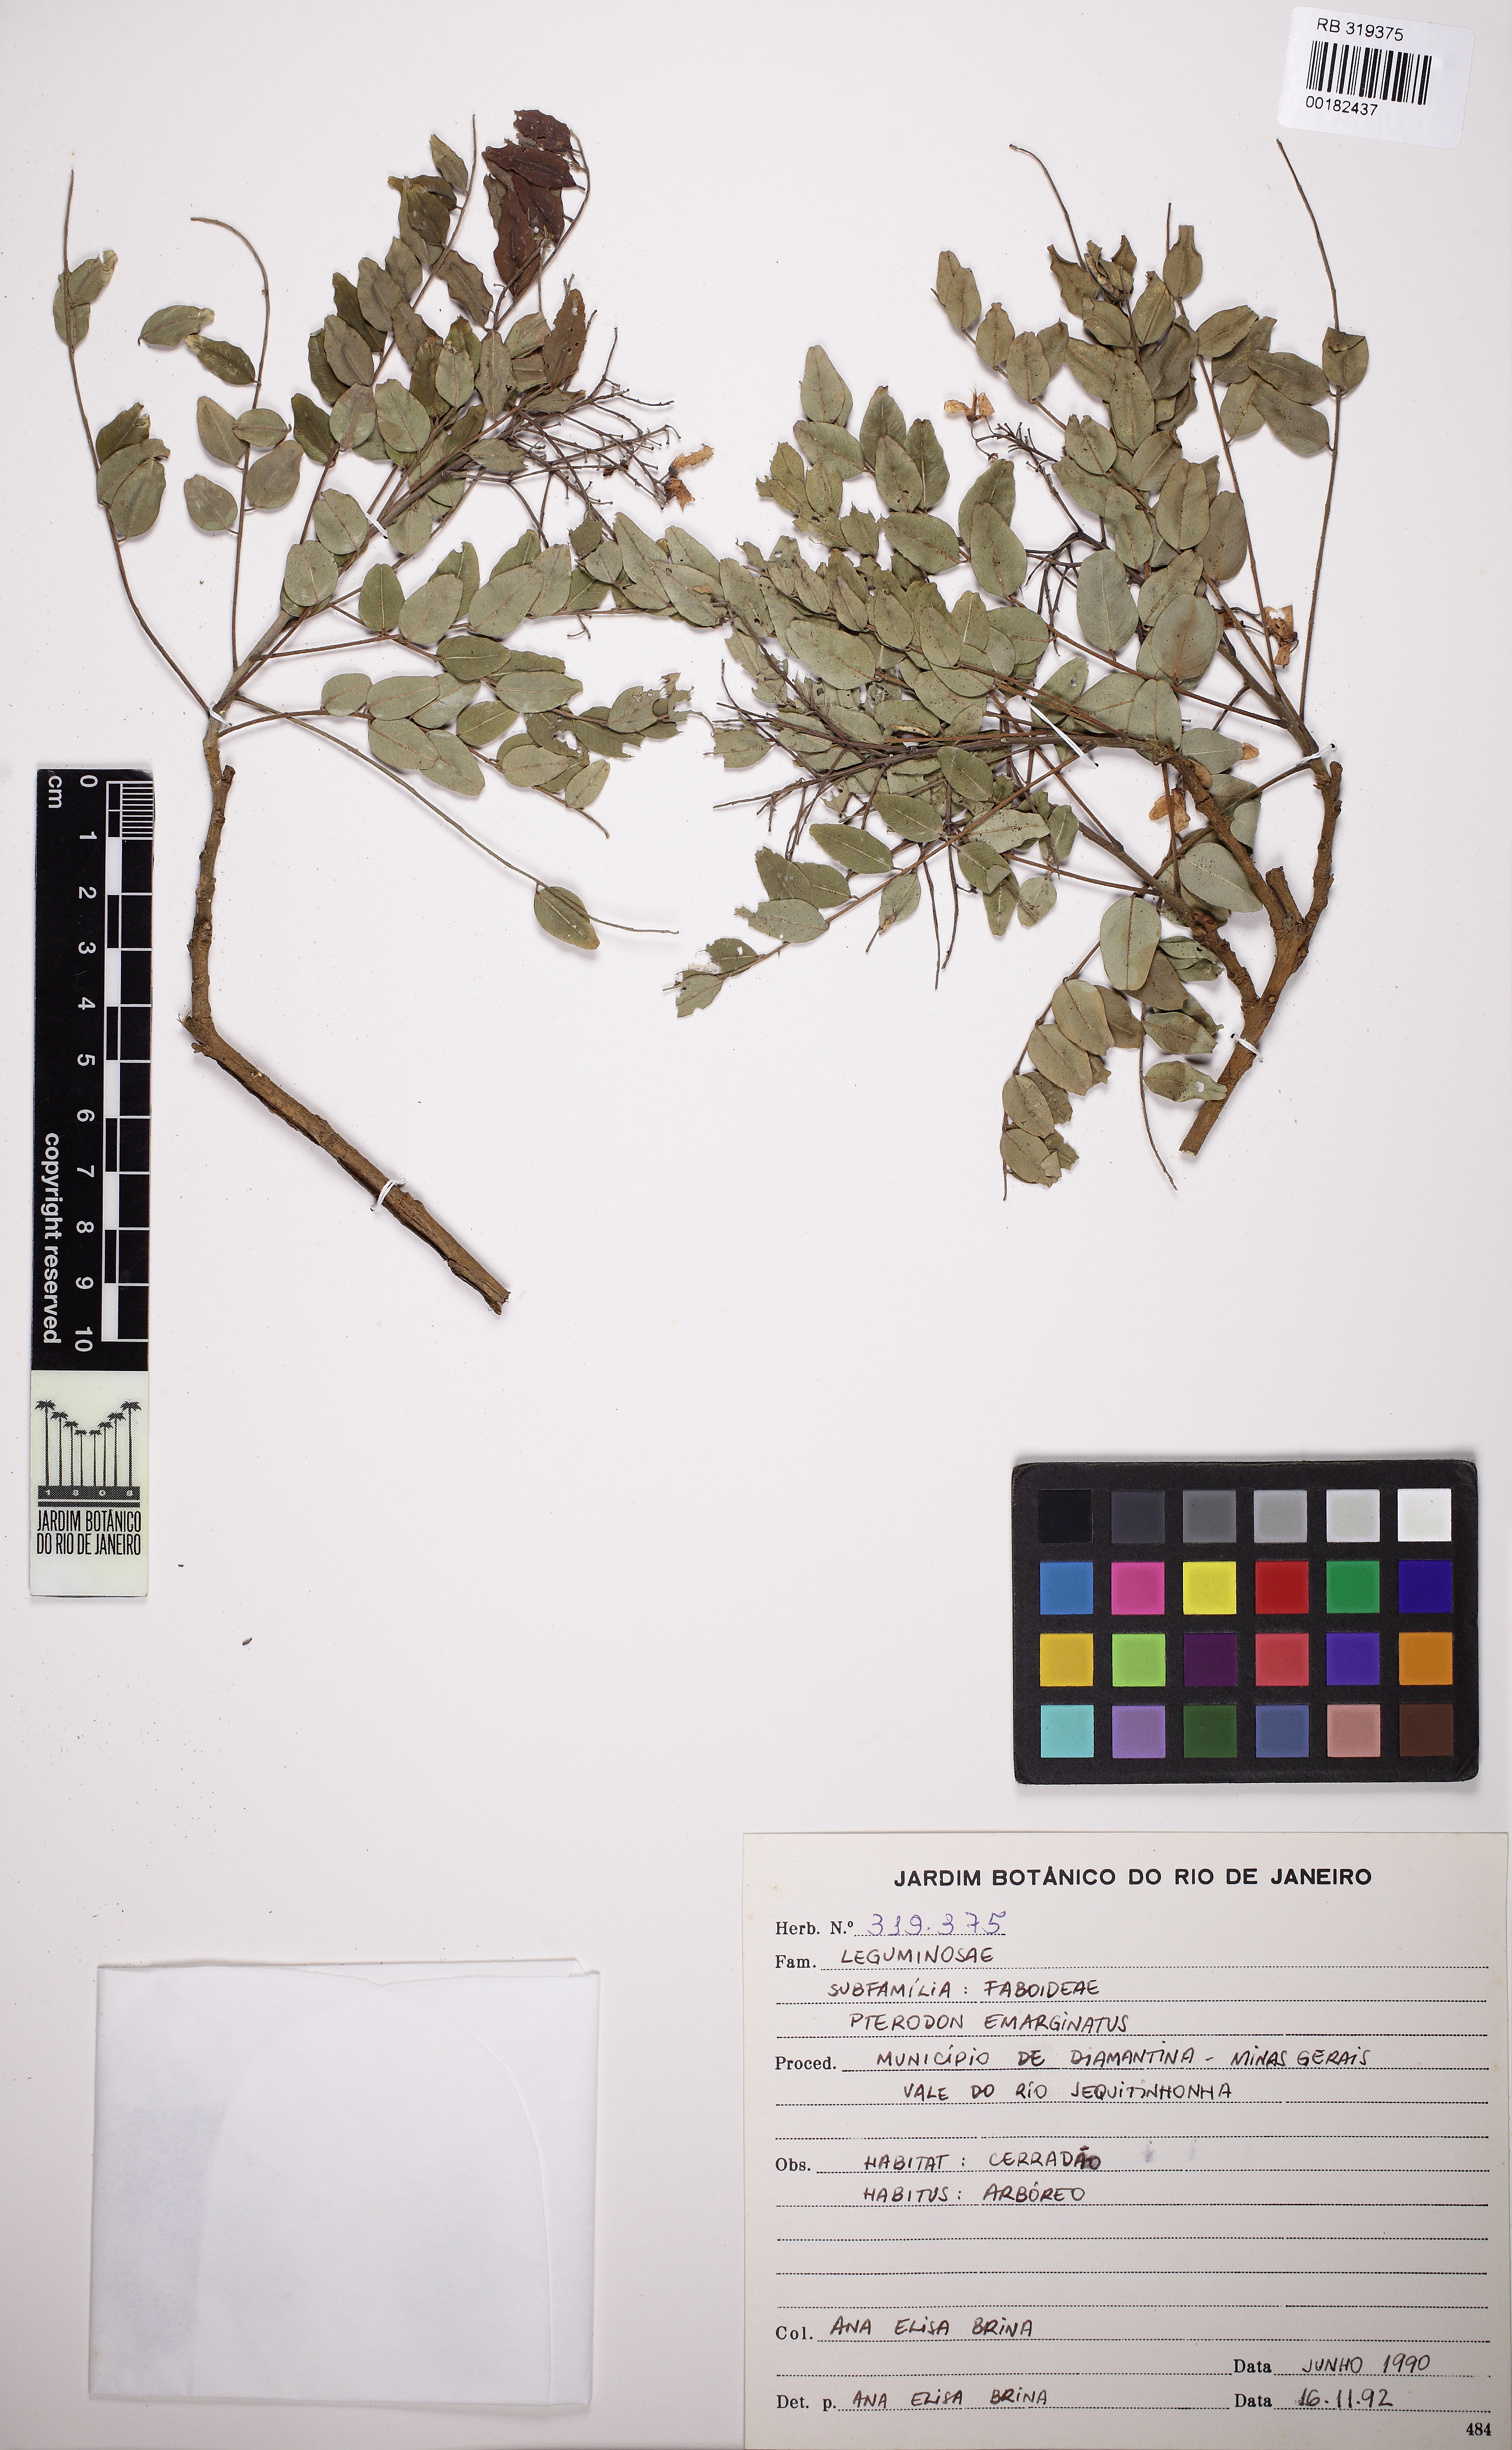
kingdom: Plantae
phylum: Tracheophyta
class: Magnoliopsida
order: Fabales
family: Fabaceae
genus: Pterodon
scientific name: Pterodon emarginatus
